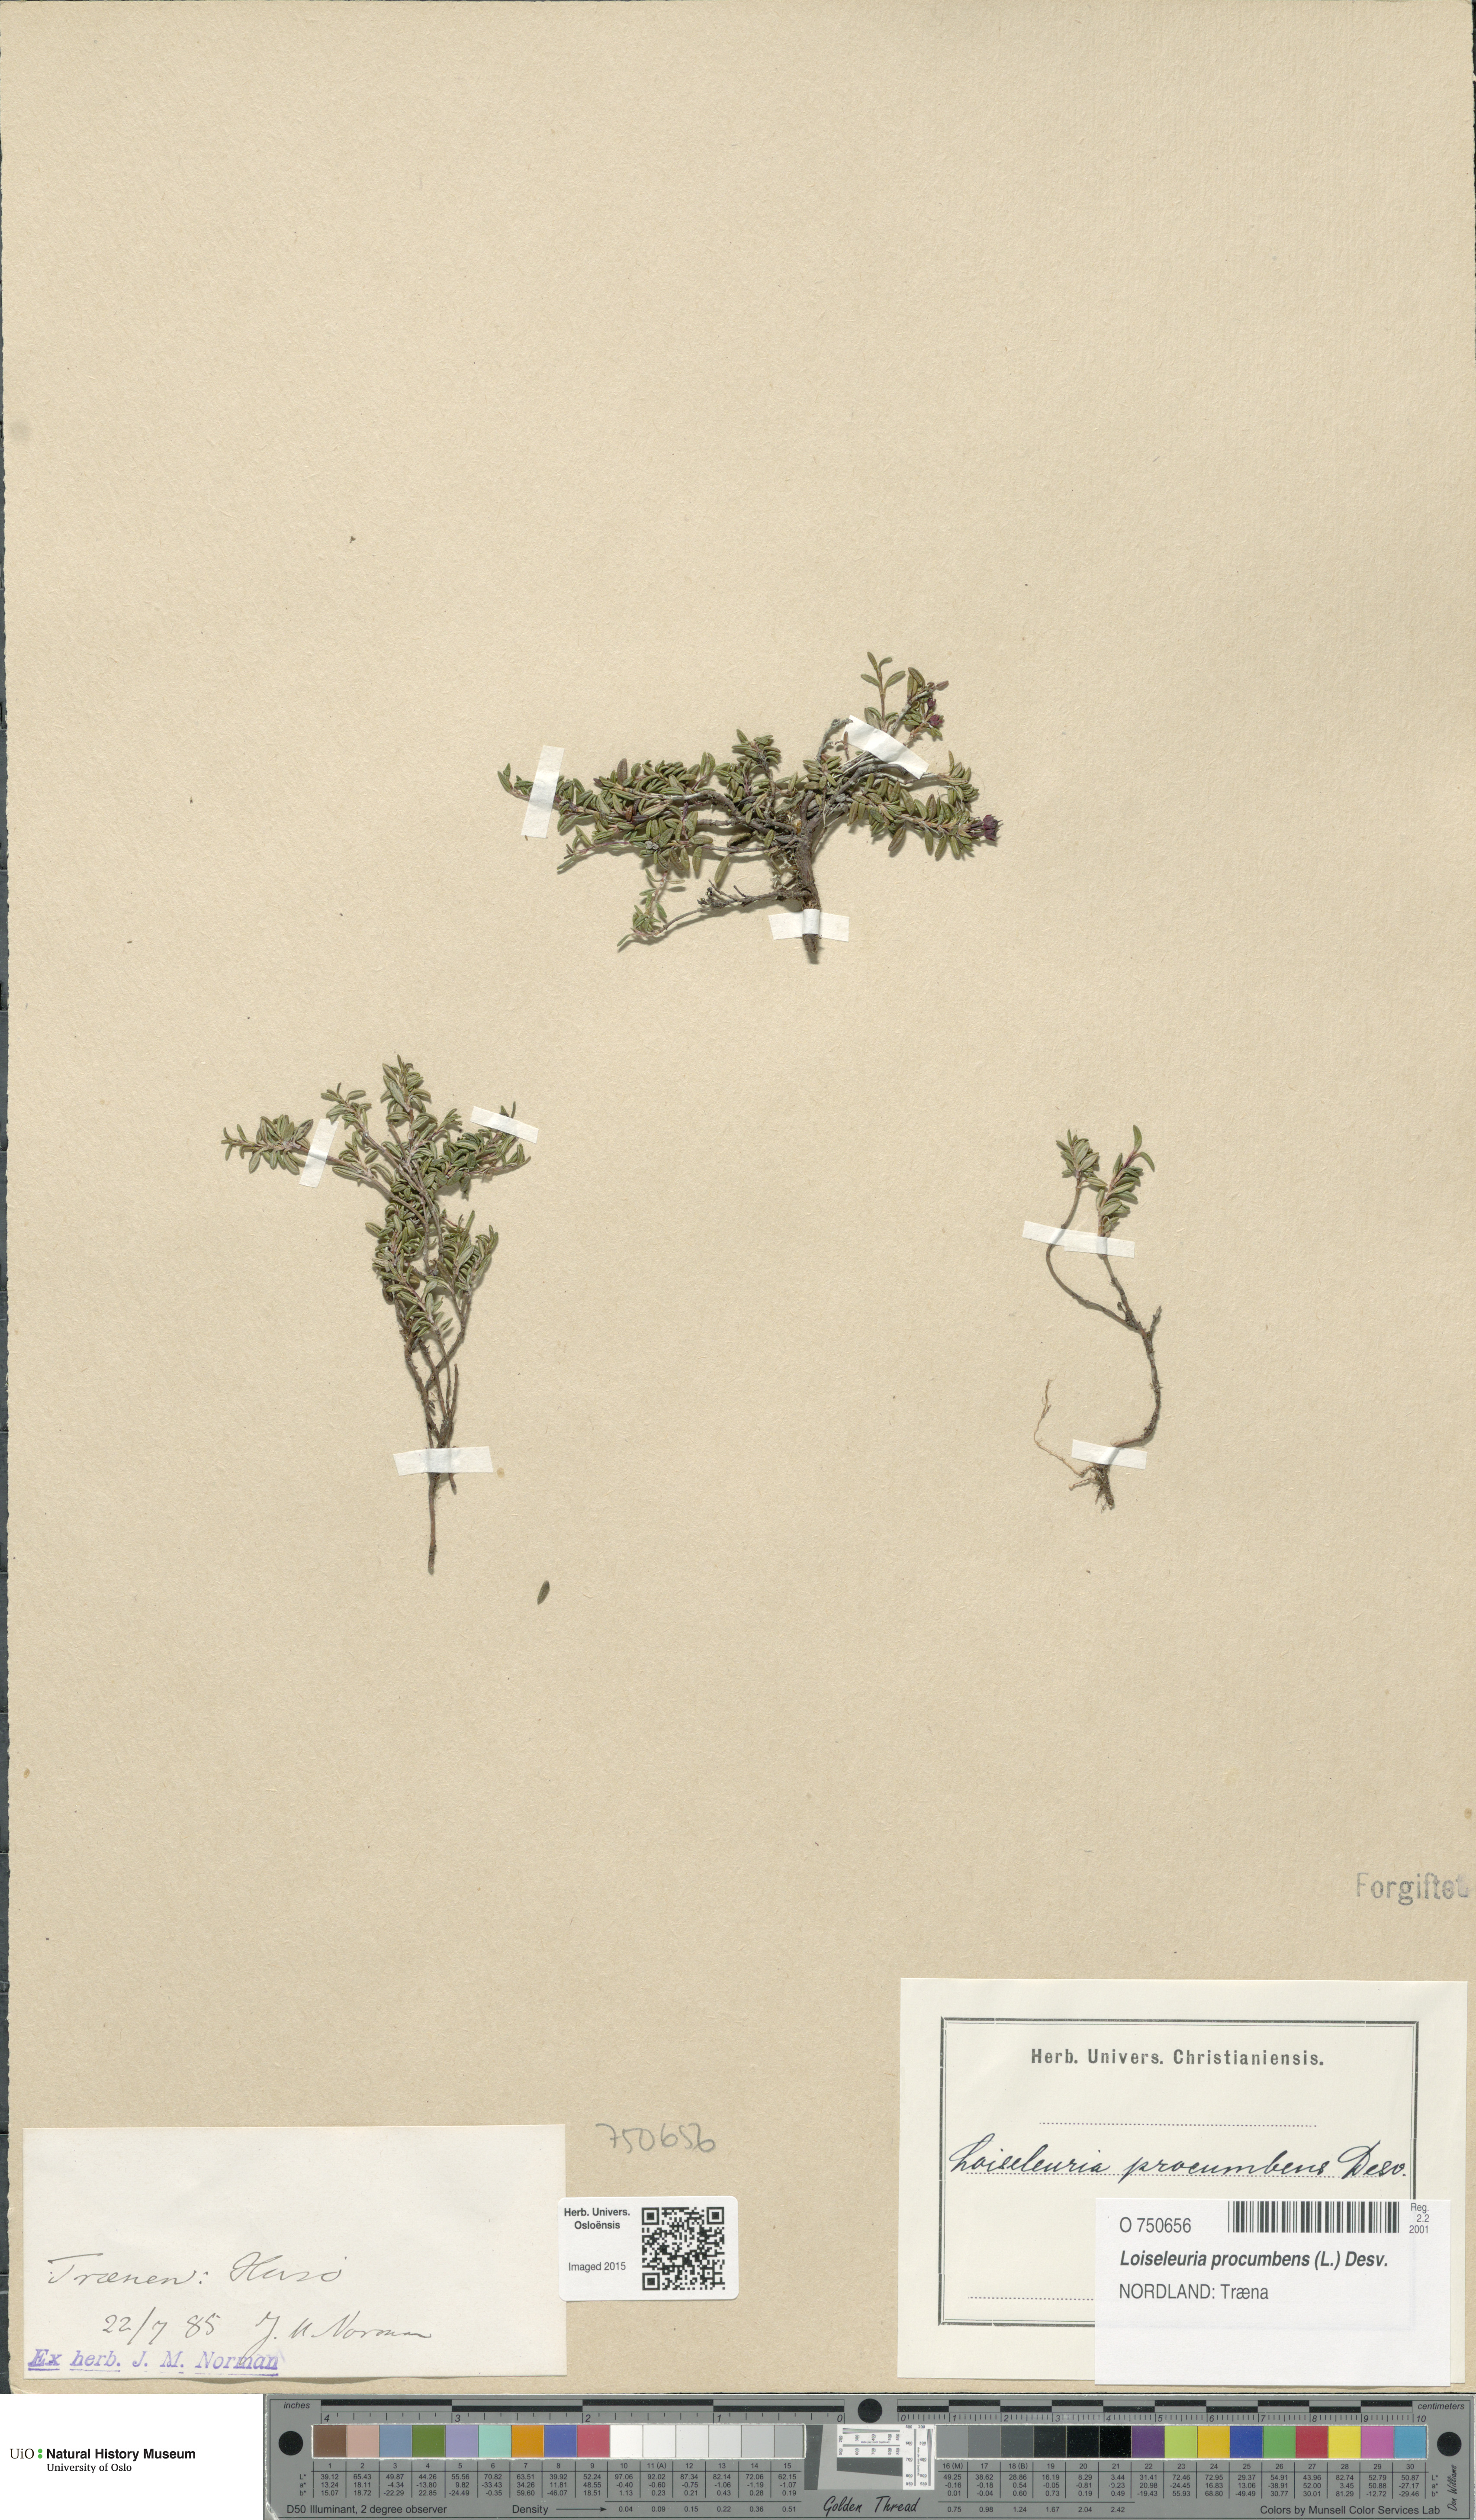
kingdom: Plantae
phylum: Tracheophyta
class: Magnoliopsida
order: Ericales
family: Ericaceae
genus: Kalmia
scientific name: Kalmia procumbens
